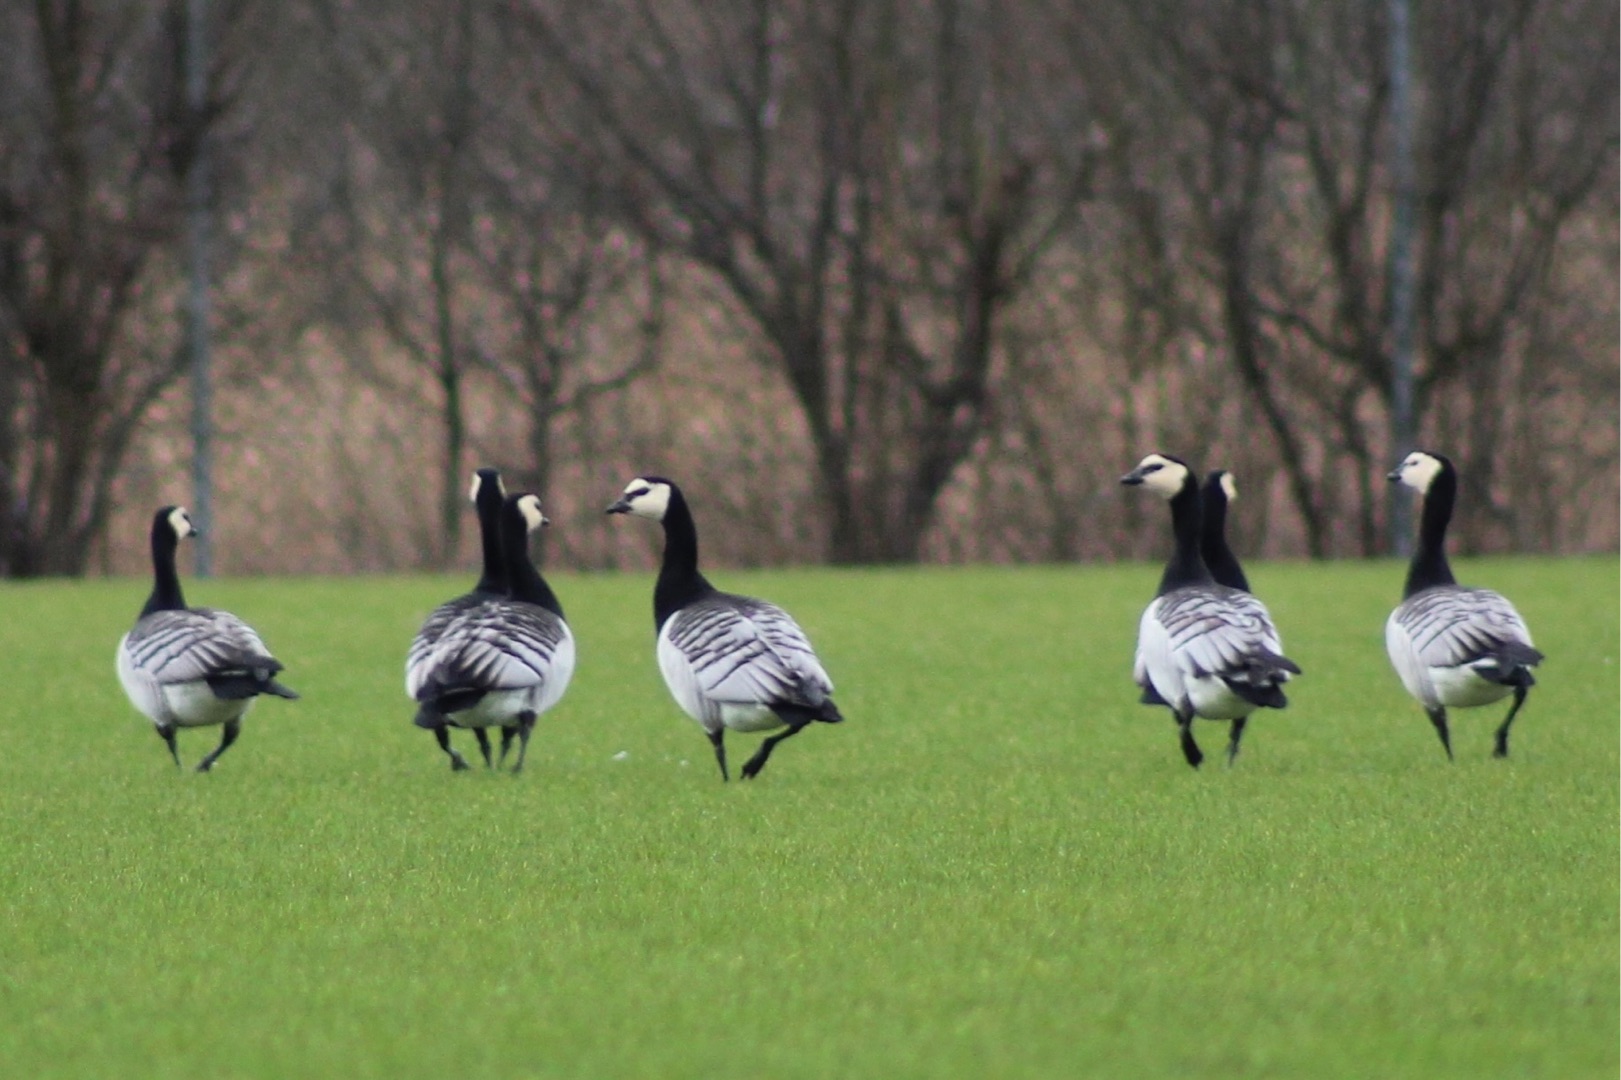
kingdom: Animalia
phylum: Chordata
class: Aves
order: Anseriformes
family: Anatidae
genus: Branta
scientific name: Branta leucopsis
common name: Bramgås
